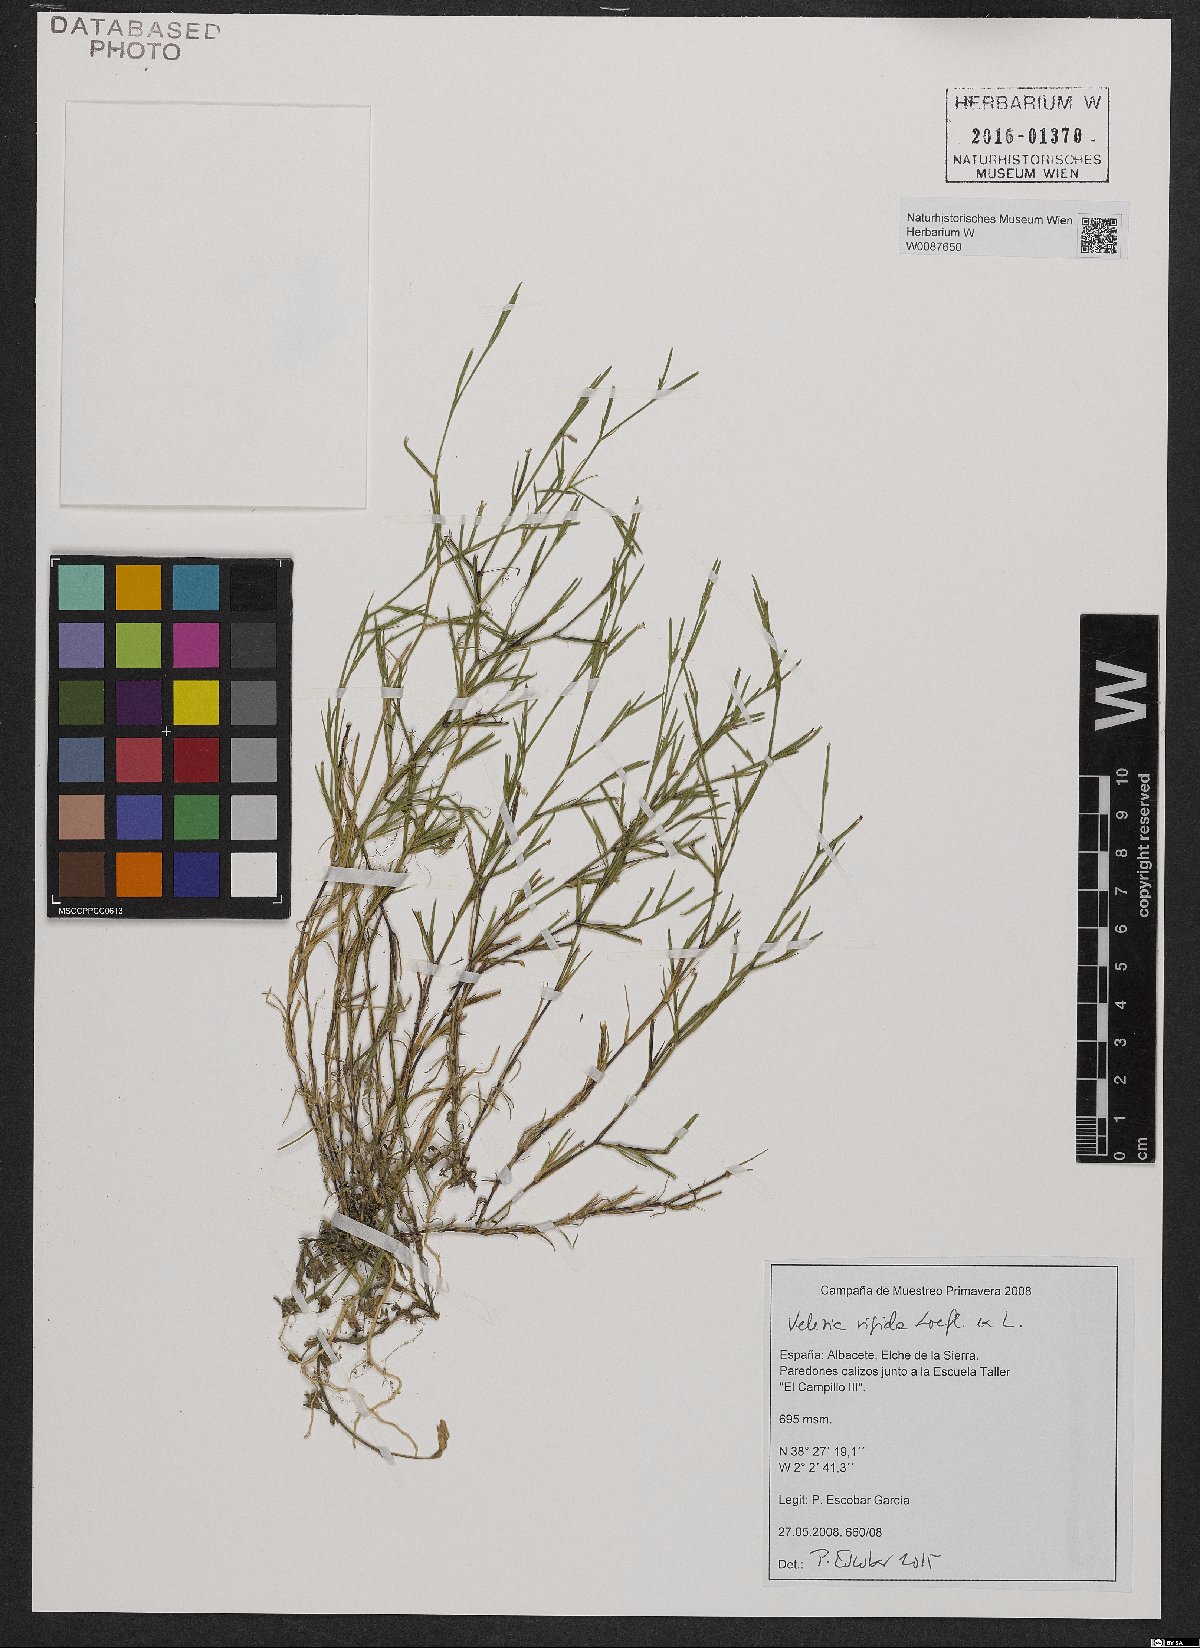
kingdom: Plantae
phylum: Tracheophyta
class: Magnoliopsida
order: Caryophyllales
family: Caryophyllaceae
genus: Dianthus
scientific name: Dianthus nudiflorus
